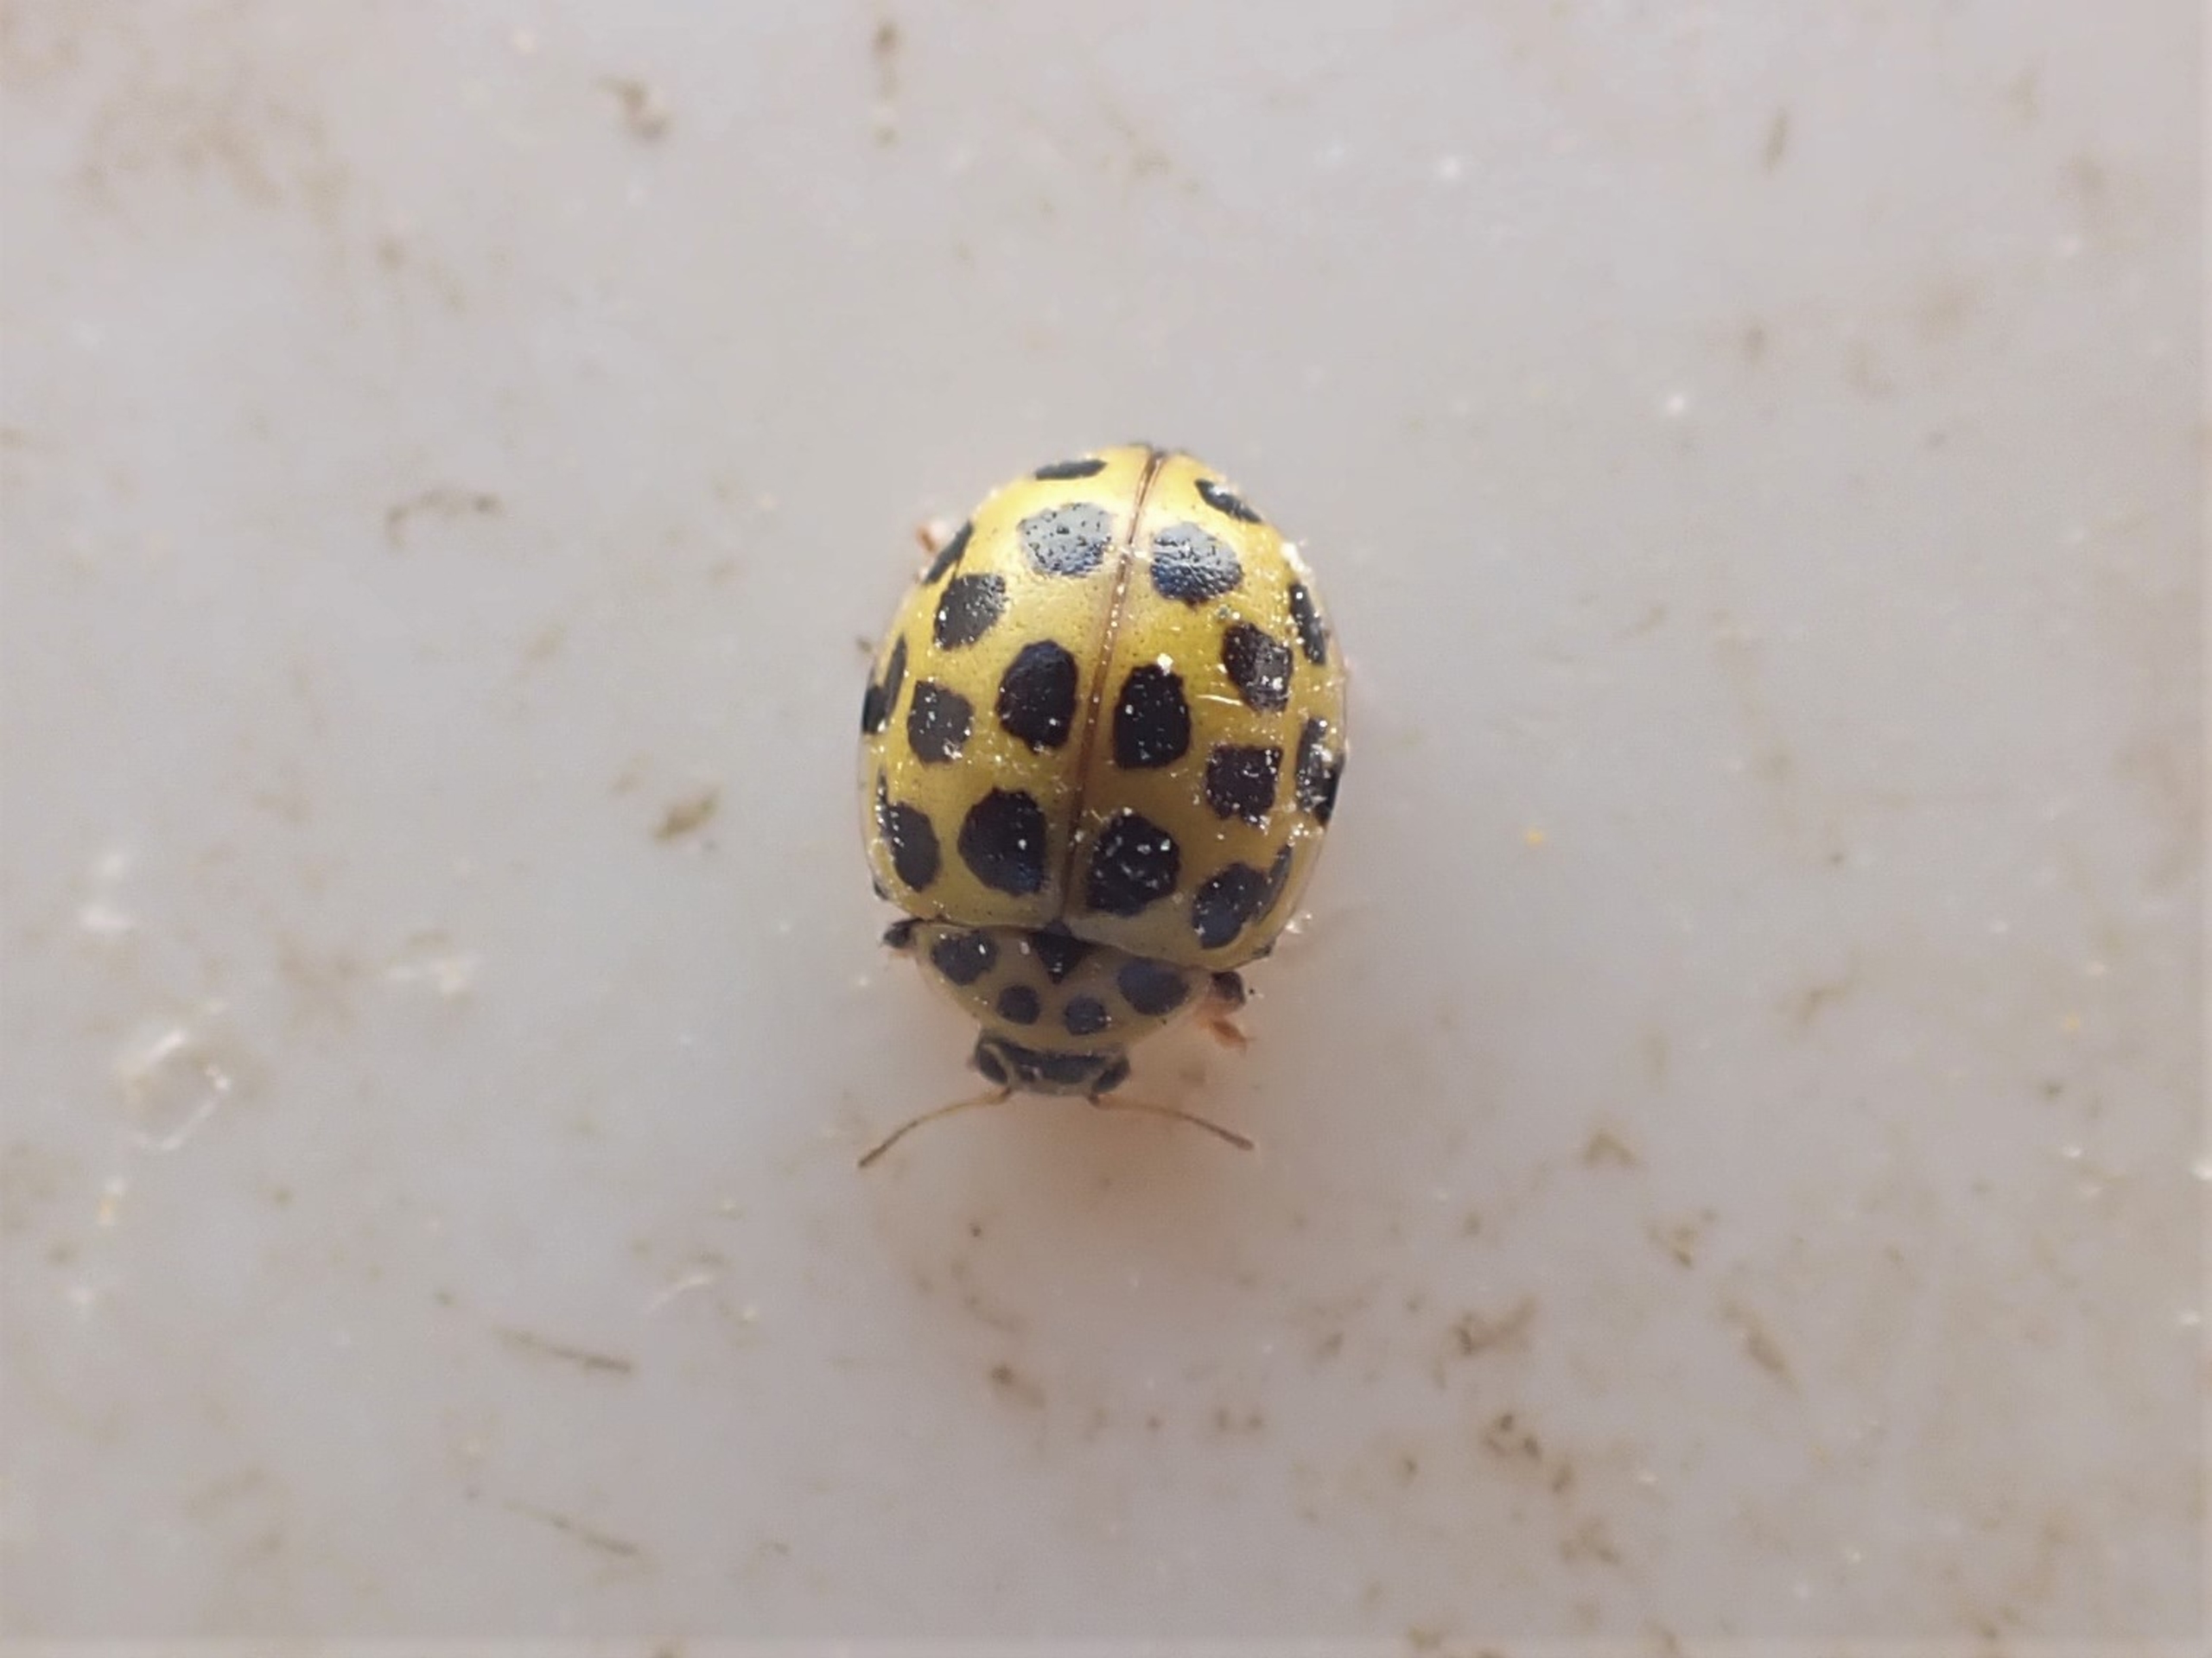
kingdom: Animalia
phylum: Arthropoda
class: Insecta
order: Coleoptera
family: Coccinellidae
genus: Psyllobora
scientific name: Psyllobora vigintiduopunctata
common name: Toogtyveplettet mariehøne
